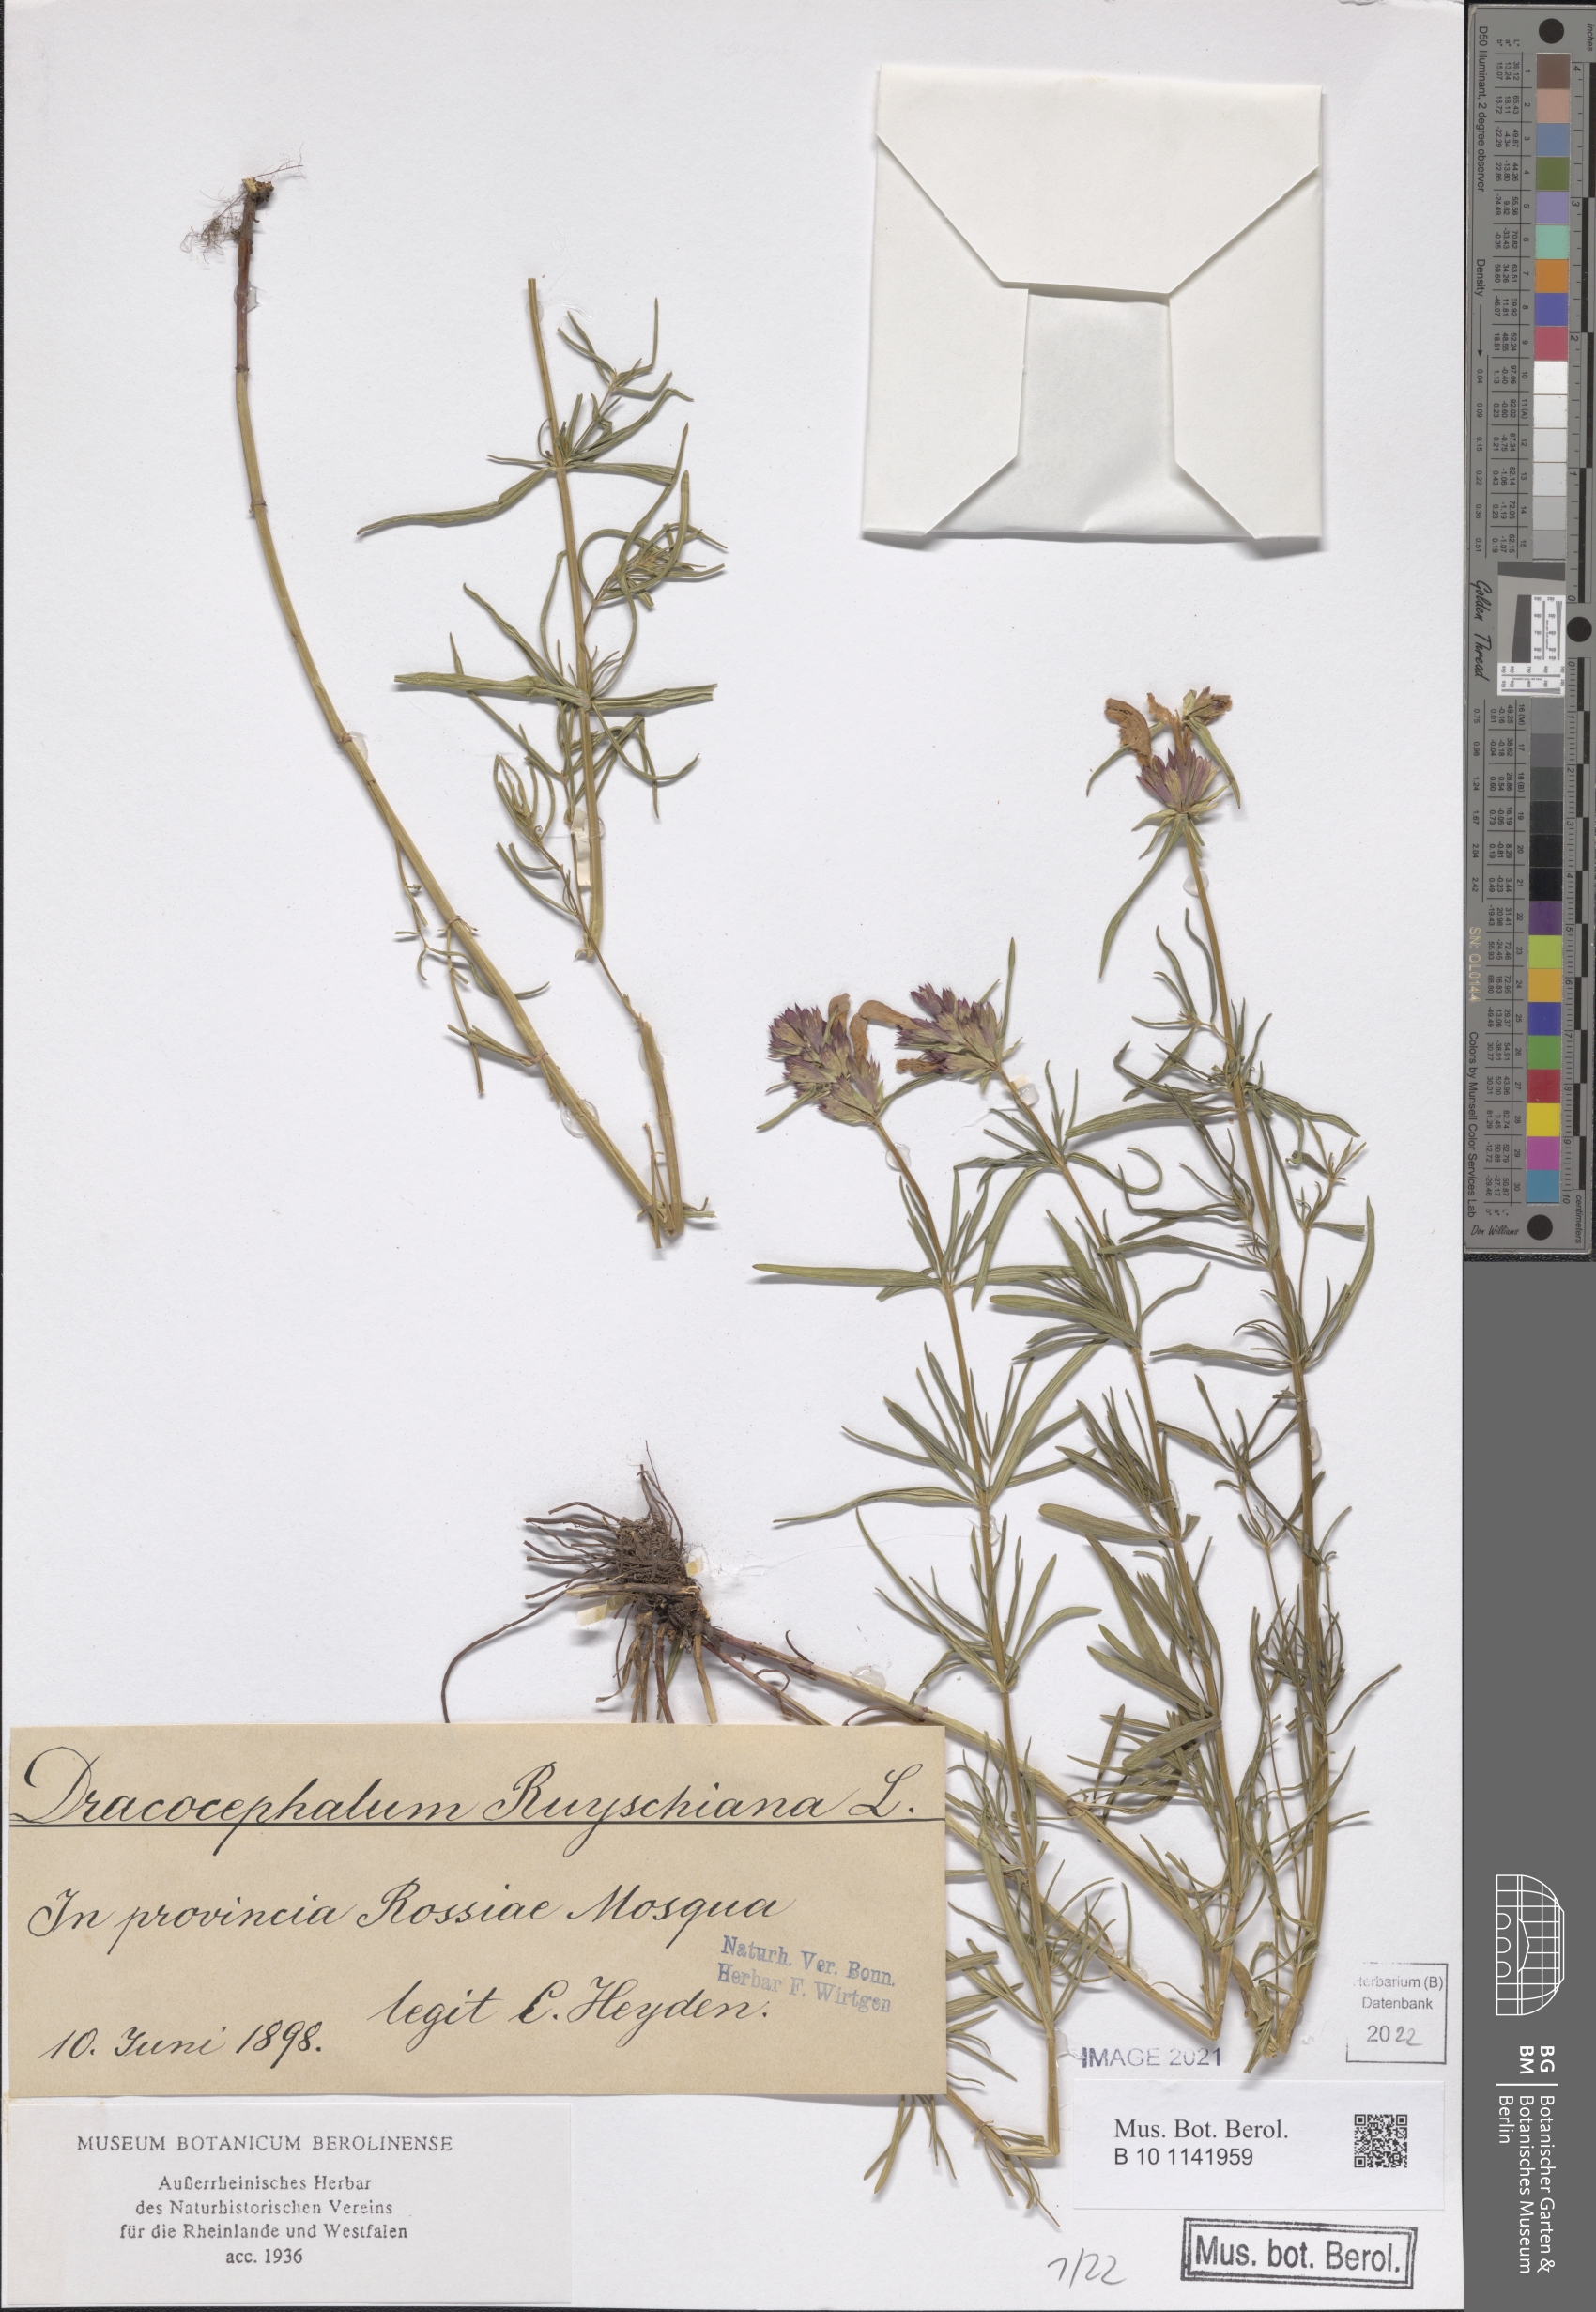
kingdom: Plantae
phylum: Tracheophyta
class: Magnoliopsida
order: Lamiales
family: Lamiaceae
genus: Dracocephalum
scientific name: Dracocephalum ruyschiana
